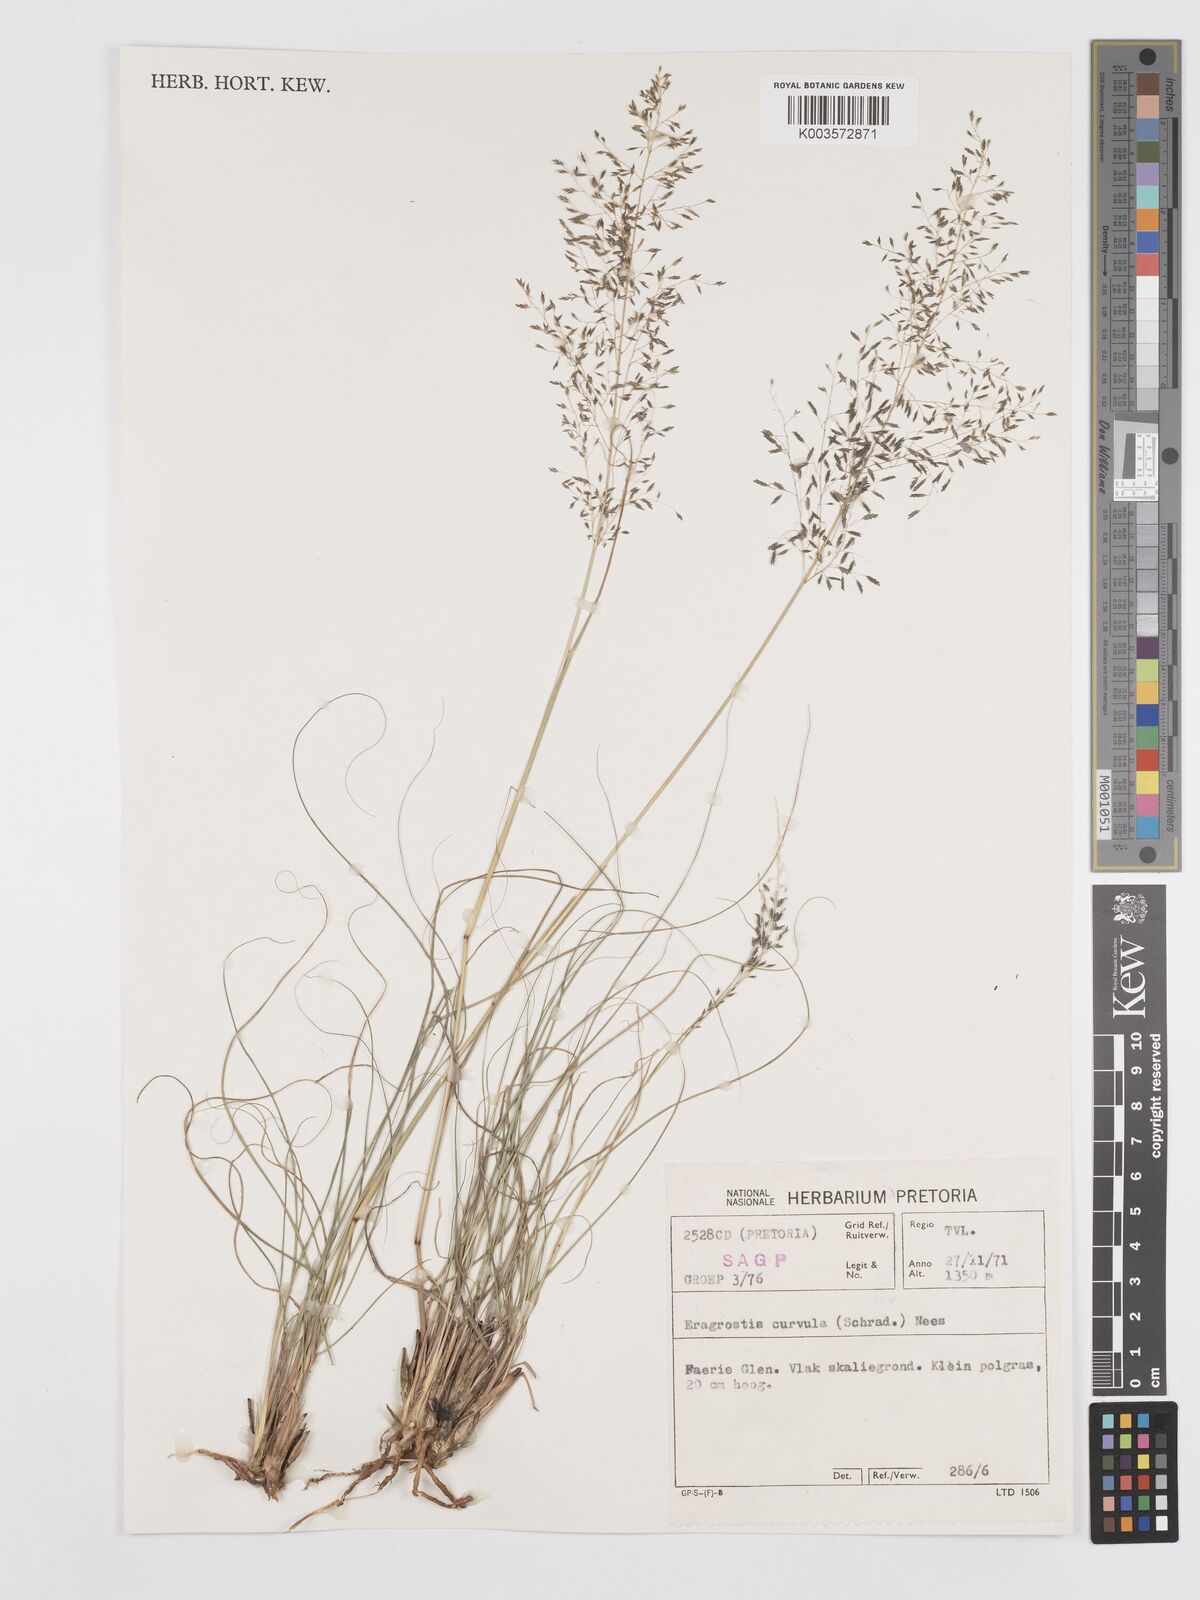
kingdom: Plantae
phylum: Tracheophyta
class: Liliopsida
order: Poales
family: Poaceae
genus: Eragrostis
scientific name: Eragrostis curvula
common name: African love-grass
